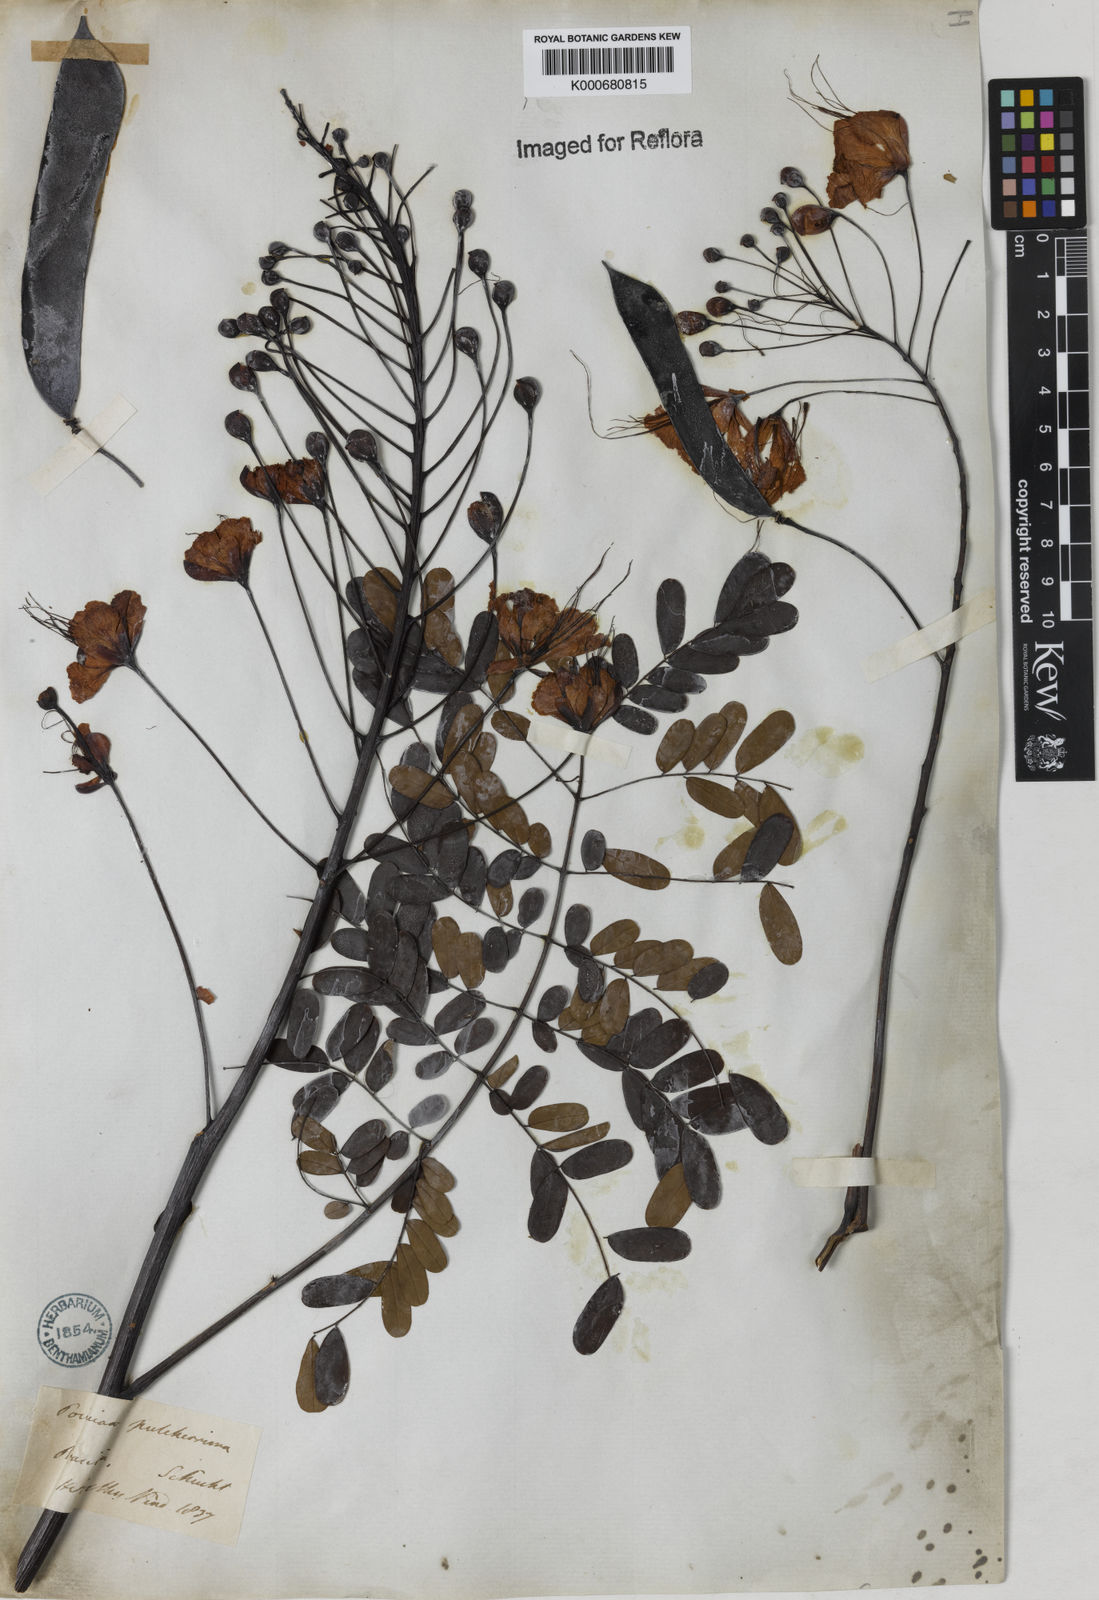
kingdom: Plantae
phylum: Tracheophyta
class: Magnoliopsida
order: Fabales
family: Fabaceae
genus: Caesalpinia
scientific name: Caesalpinia pulcherrima
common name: Pride-of-barbados
